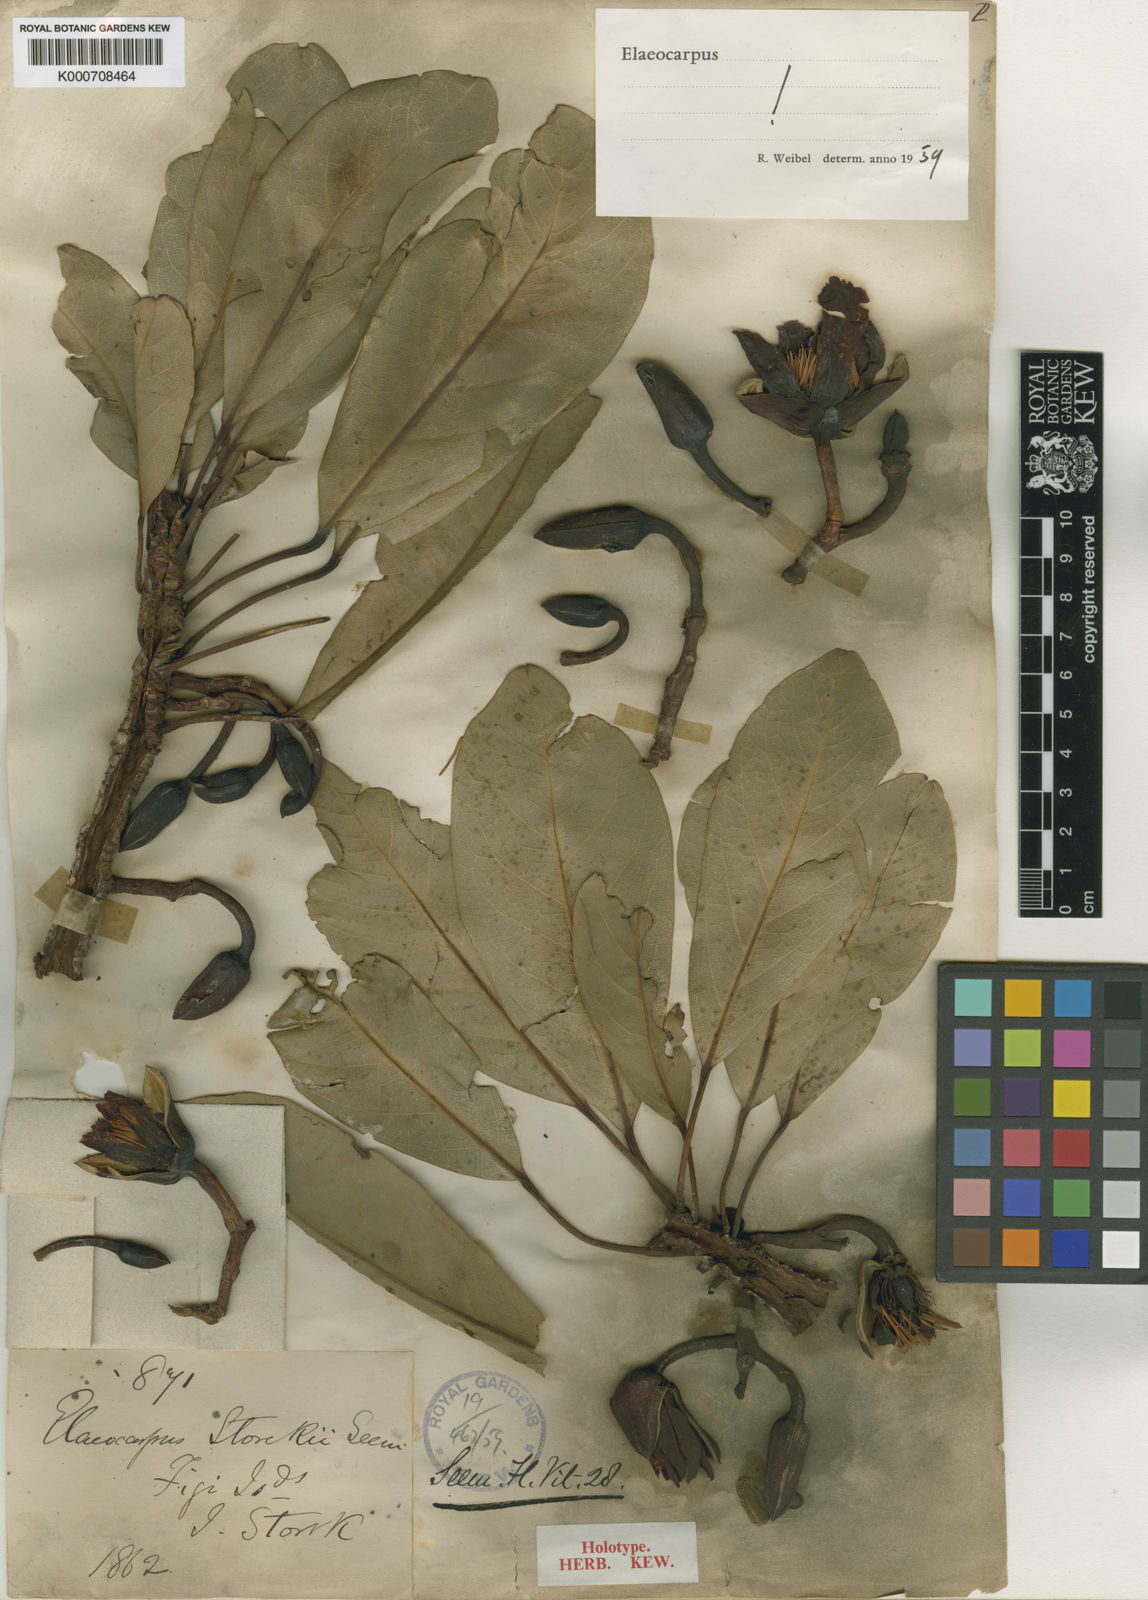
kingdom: Plantae
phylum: Tracheophyta
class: Magnoliopsida
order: Oxalidales
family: Elaeocarpaceae
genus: Elaeocarpus
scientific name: Elaeocarpus storckii
